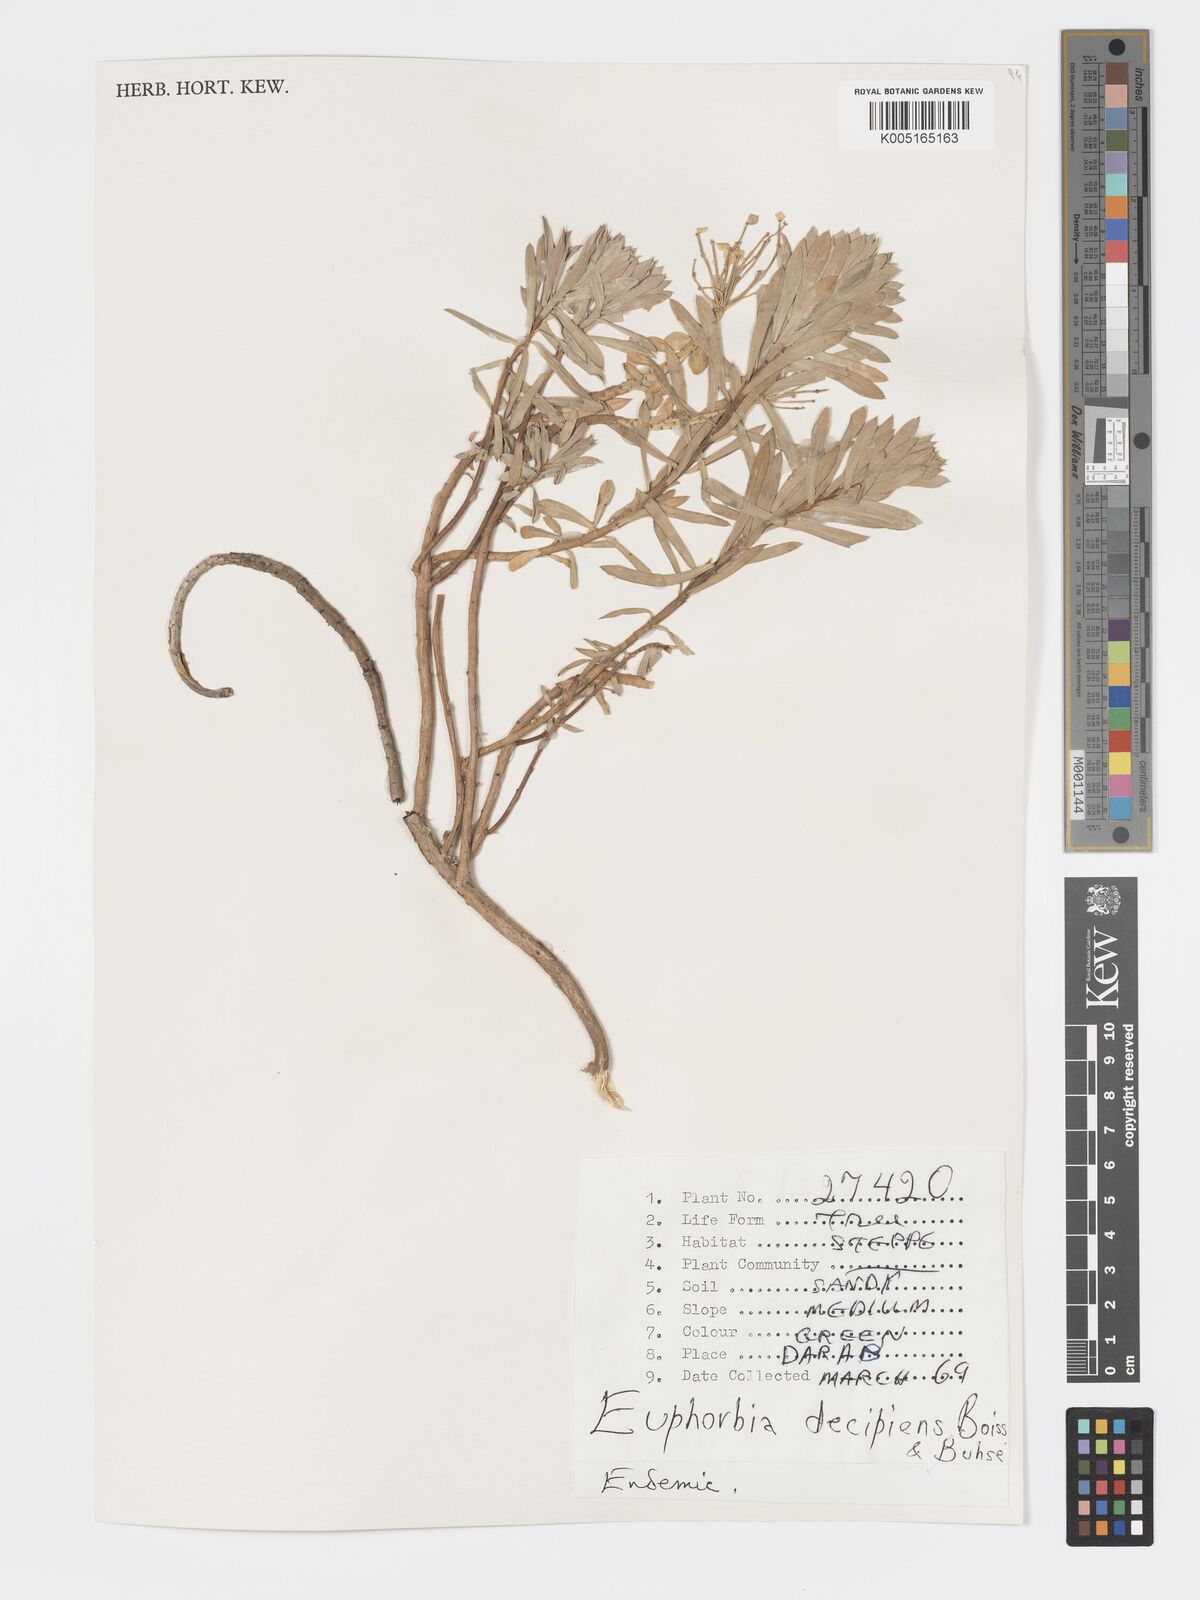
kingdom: Plantae
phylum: Tracheophyta
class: Magnoliopsida
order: Malpighiales
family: Euphorbiaceae
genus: Euphorbia
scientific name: Euphorbia polycaulis
